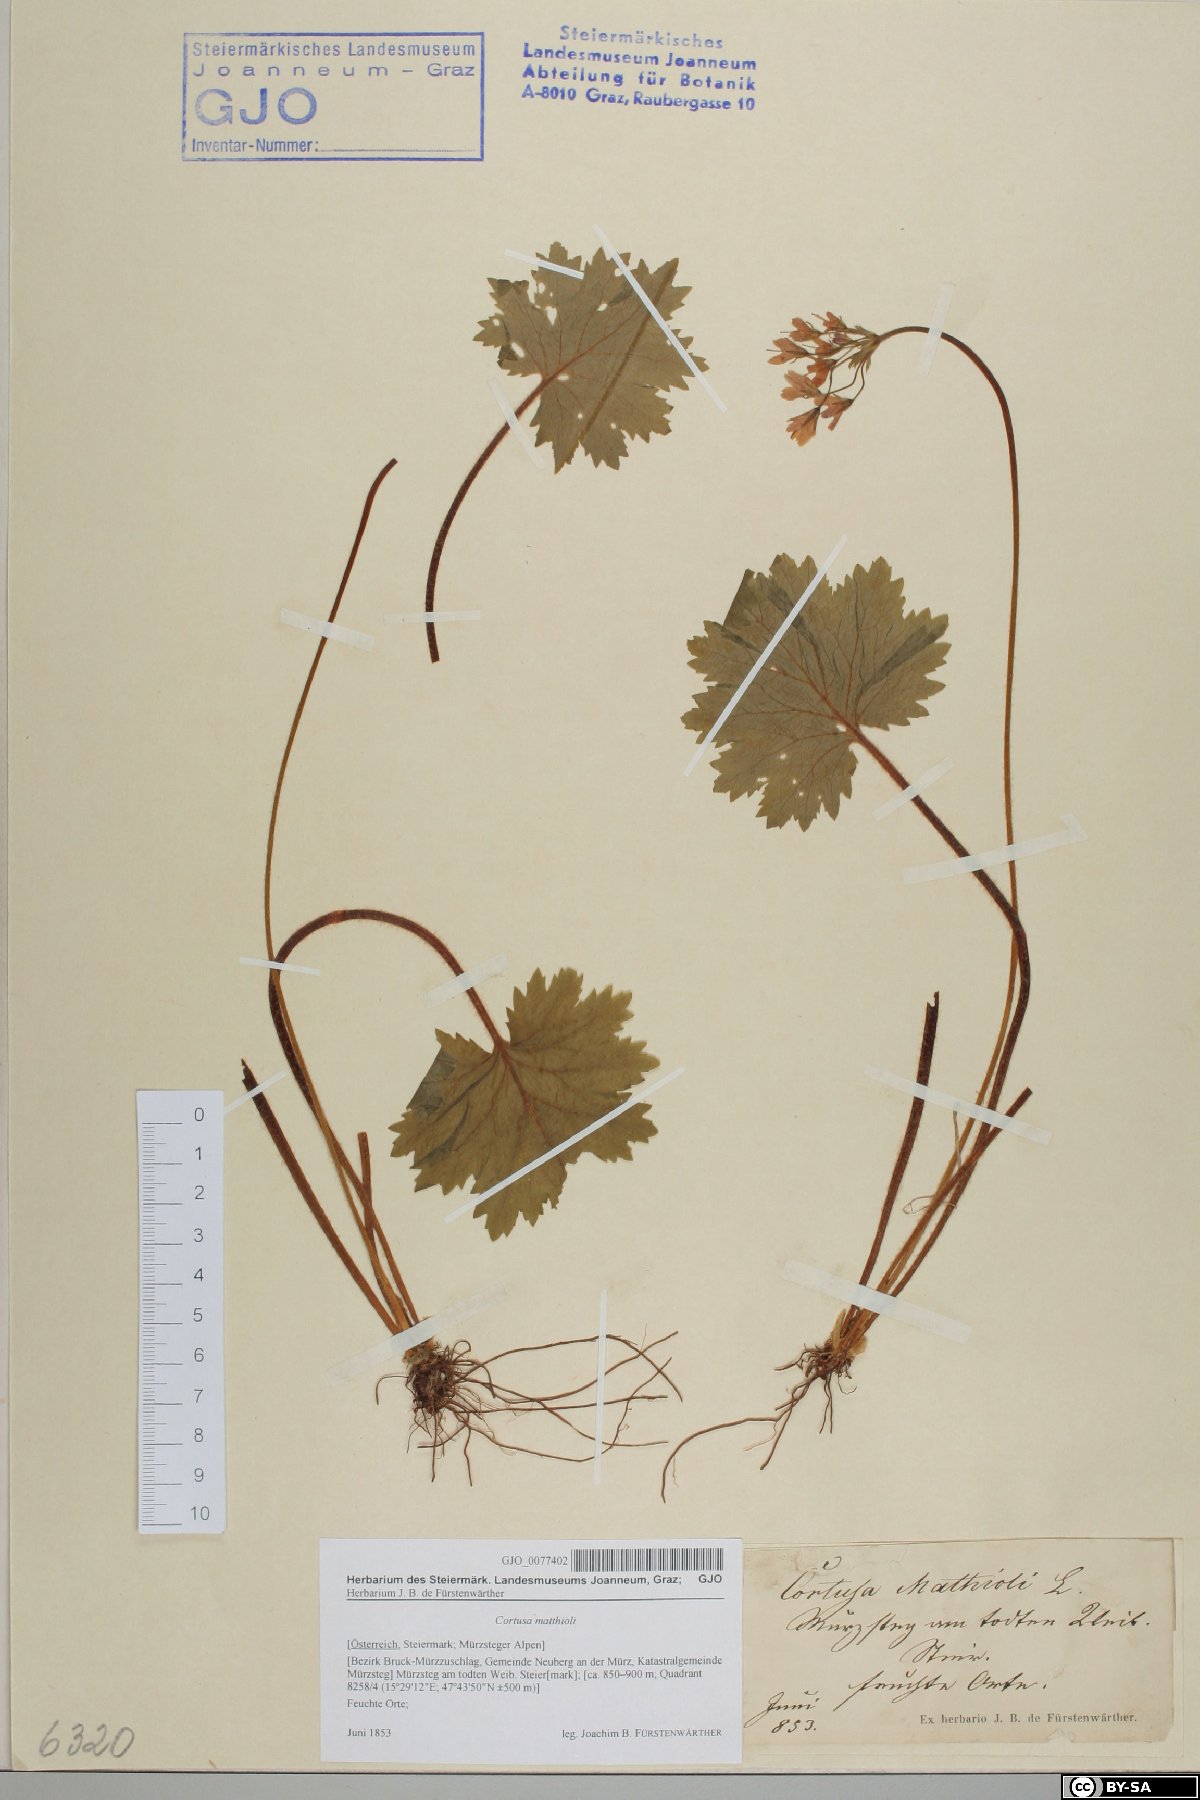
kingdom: Plantae
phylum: Tracheophyta
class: Magnoliopsida
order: Ericales
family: Primulaceae
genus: Primula
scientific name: Primula matthioli
